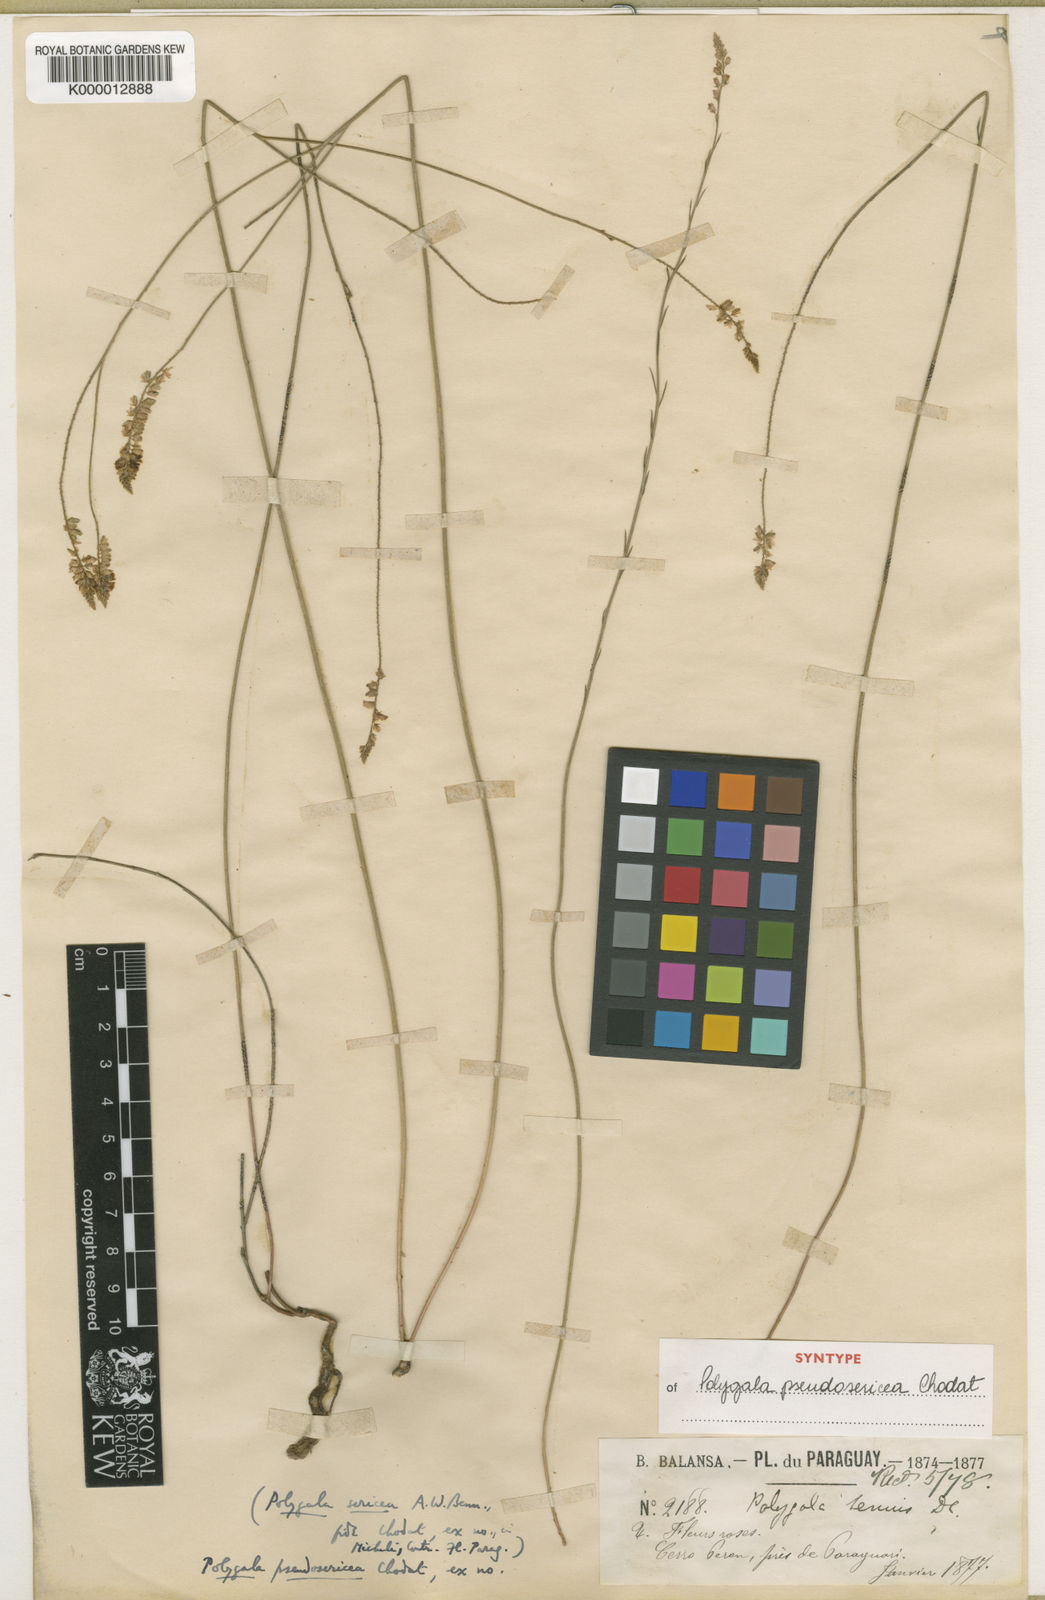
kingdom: Plantae
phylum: Tracheophyta
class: Magnoliopsida
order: Fabales
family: Polygalaceae
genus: Polygala
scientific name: Polygala pseudosericea
